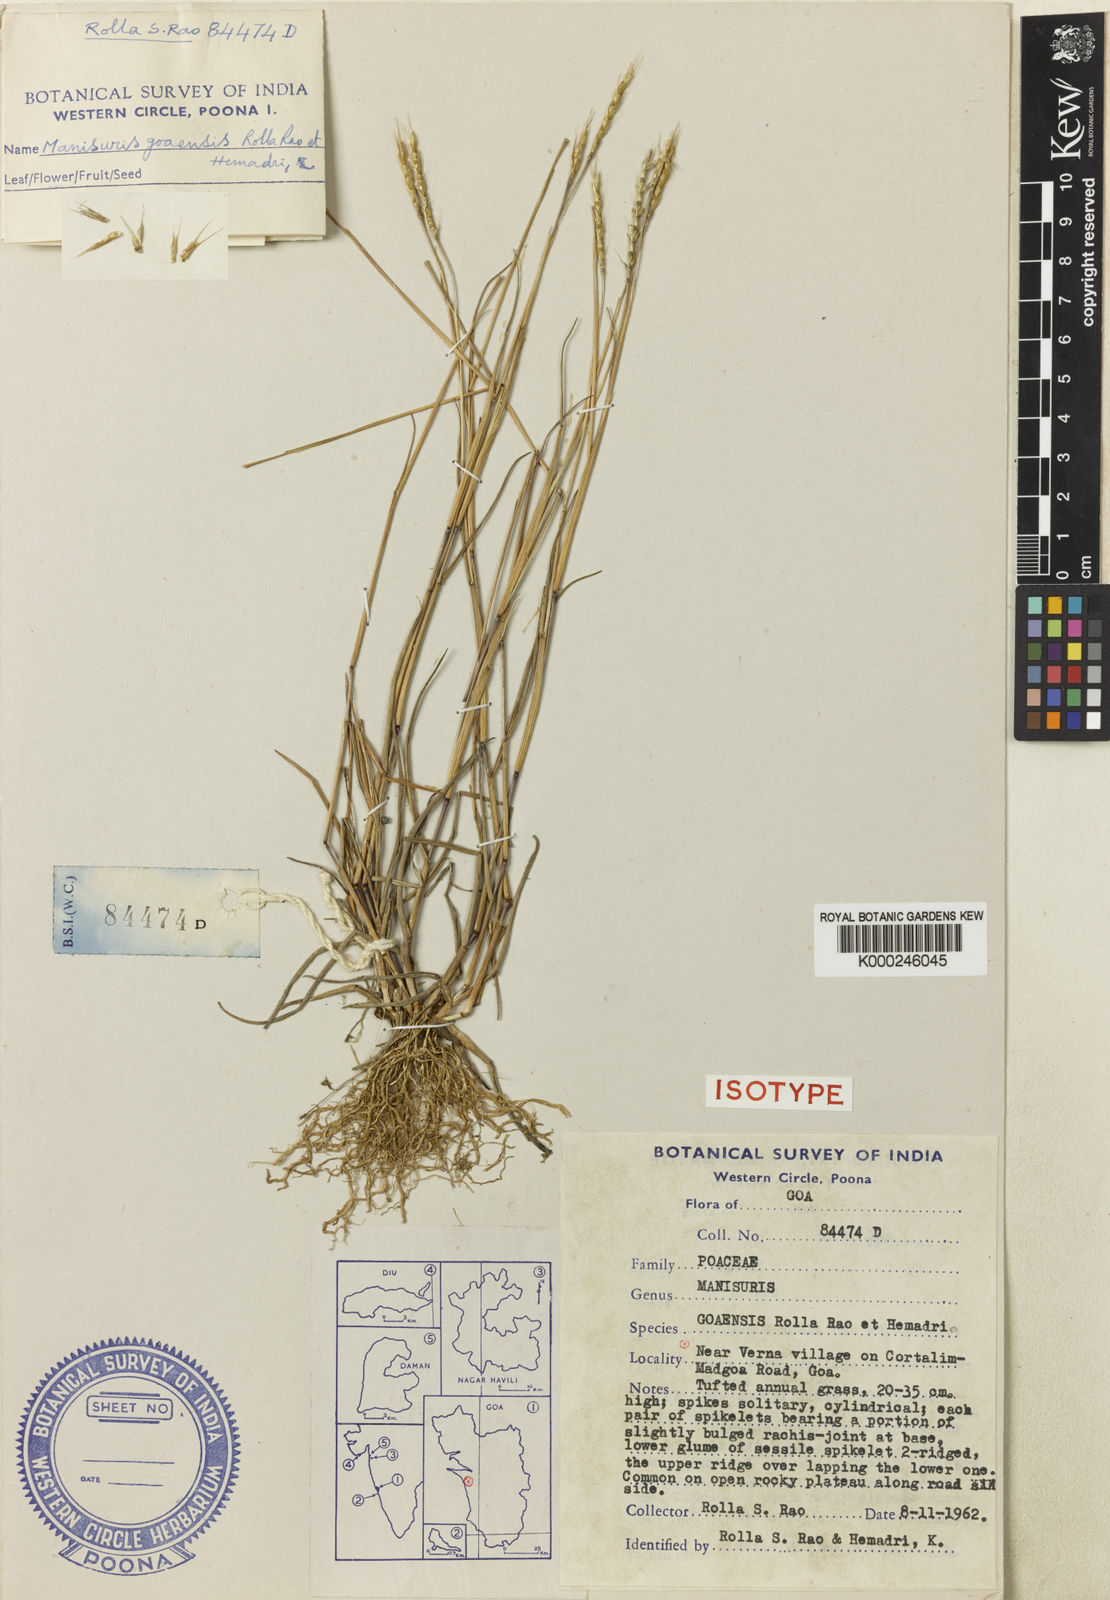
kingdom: Plantae
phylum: Tracheophyta
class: Liliopsida
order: Poales
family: Poaceae
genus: Glyphochloa
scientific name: Glyphochloa goaensis
